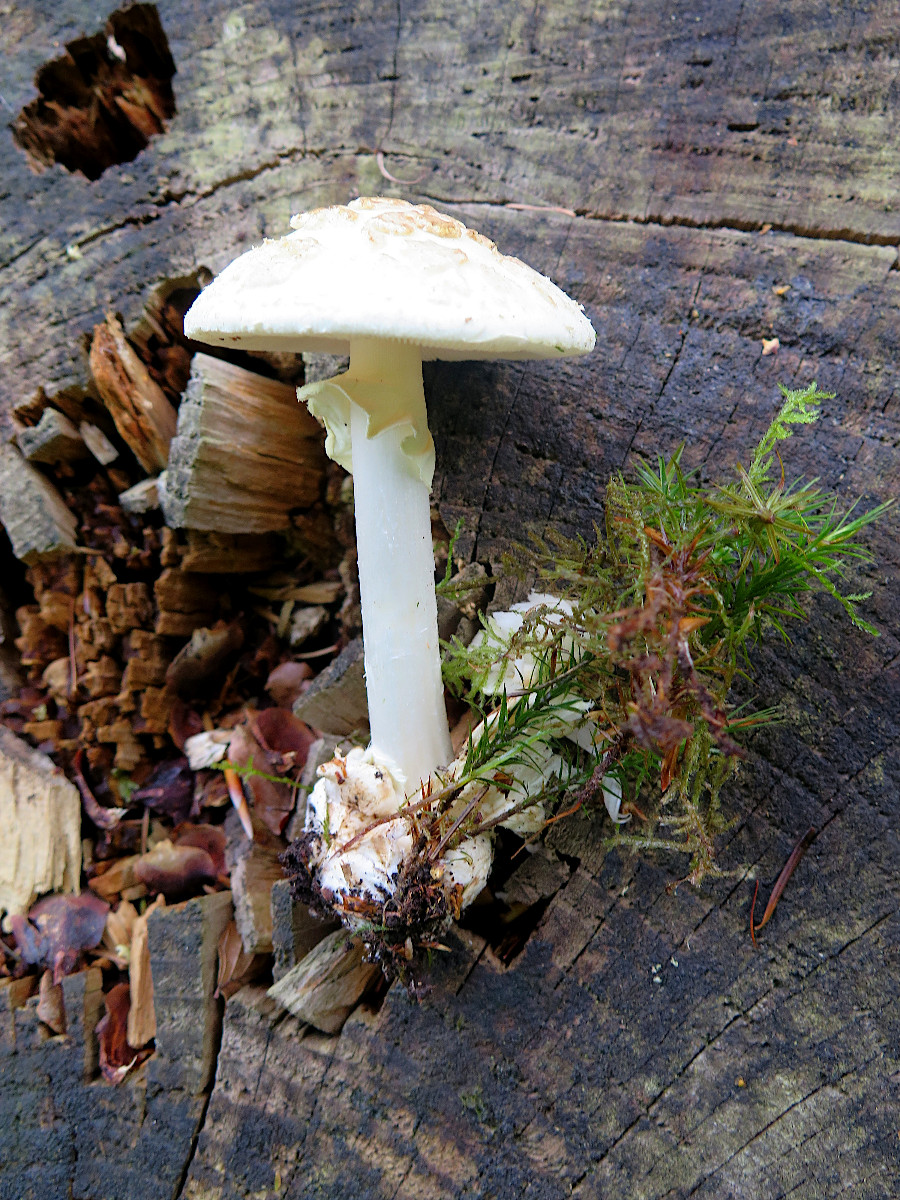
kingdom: Fungi
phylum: Basidiomycota
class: Agaricomycetes
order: Agaricales
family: Amanitaceae
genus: Amanita
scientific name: Amanita citrina
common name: kugleknoldet fluesvamp
